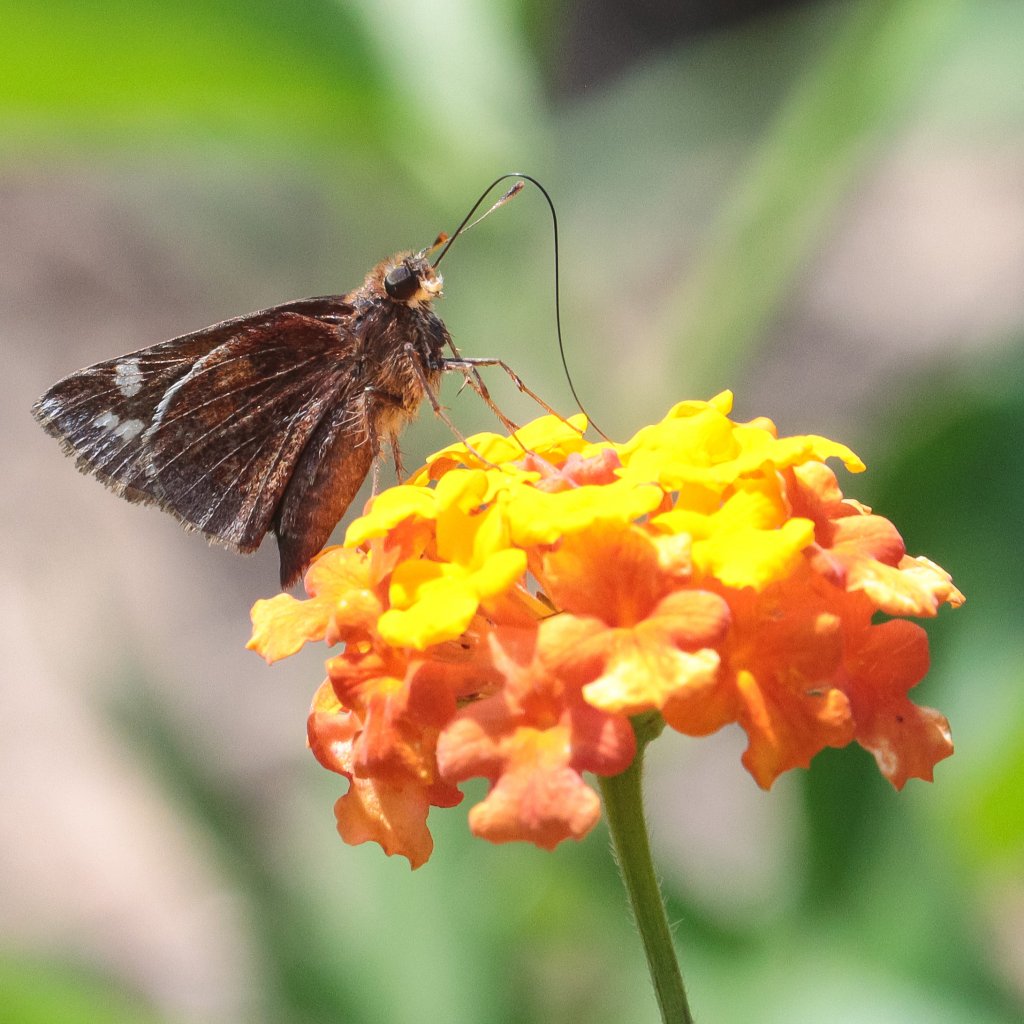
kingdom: Animalia
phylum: Arthropoda
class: Insecta
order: Lepidoptera
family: Hesperiidae
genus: Lon
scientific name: Lon zabulon
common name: Zabulon Skipper
